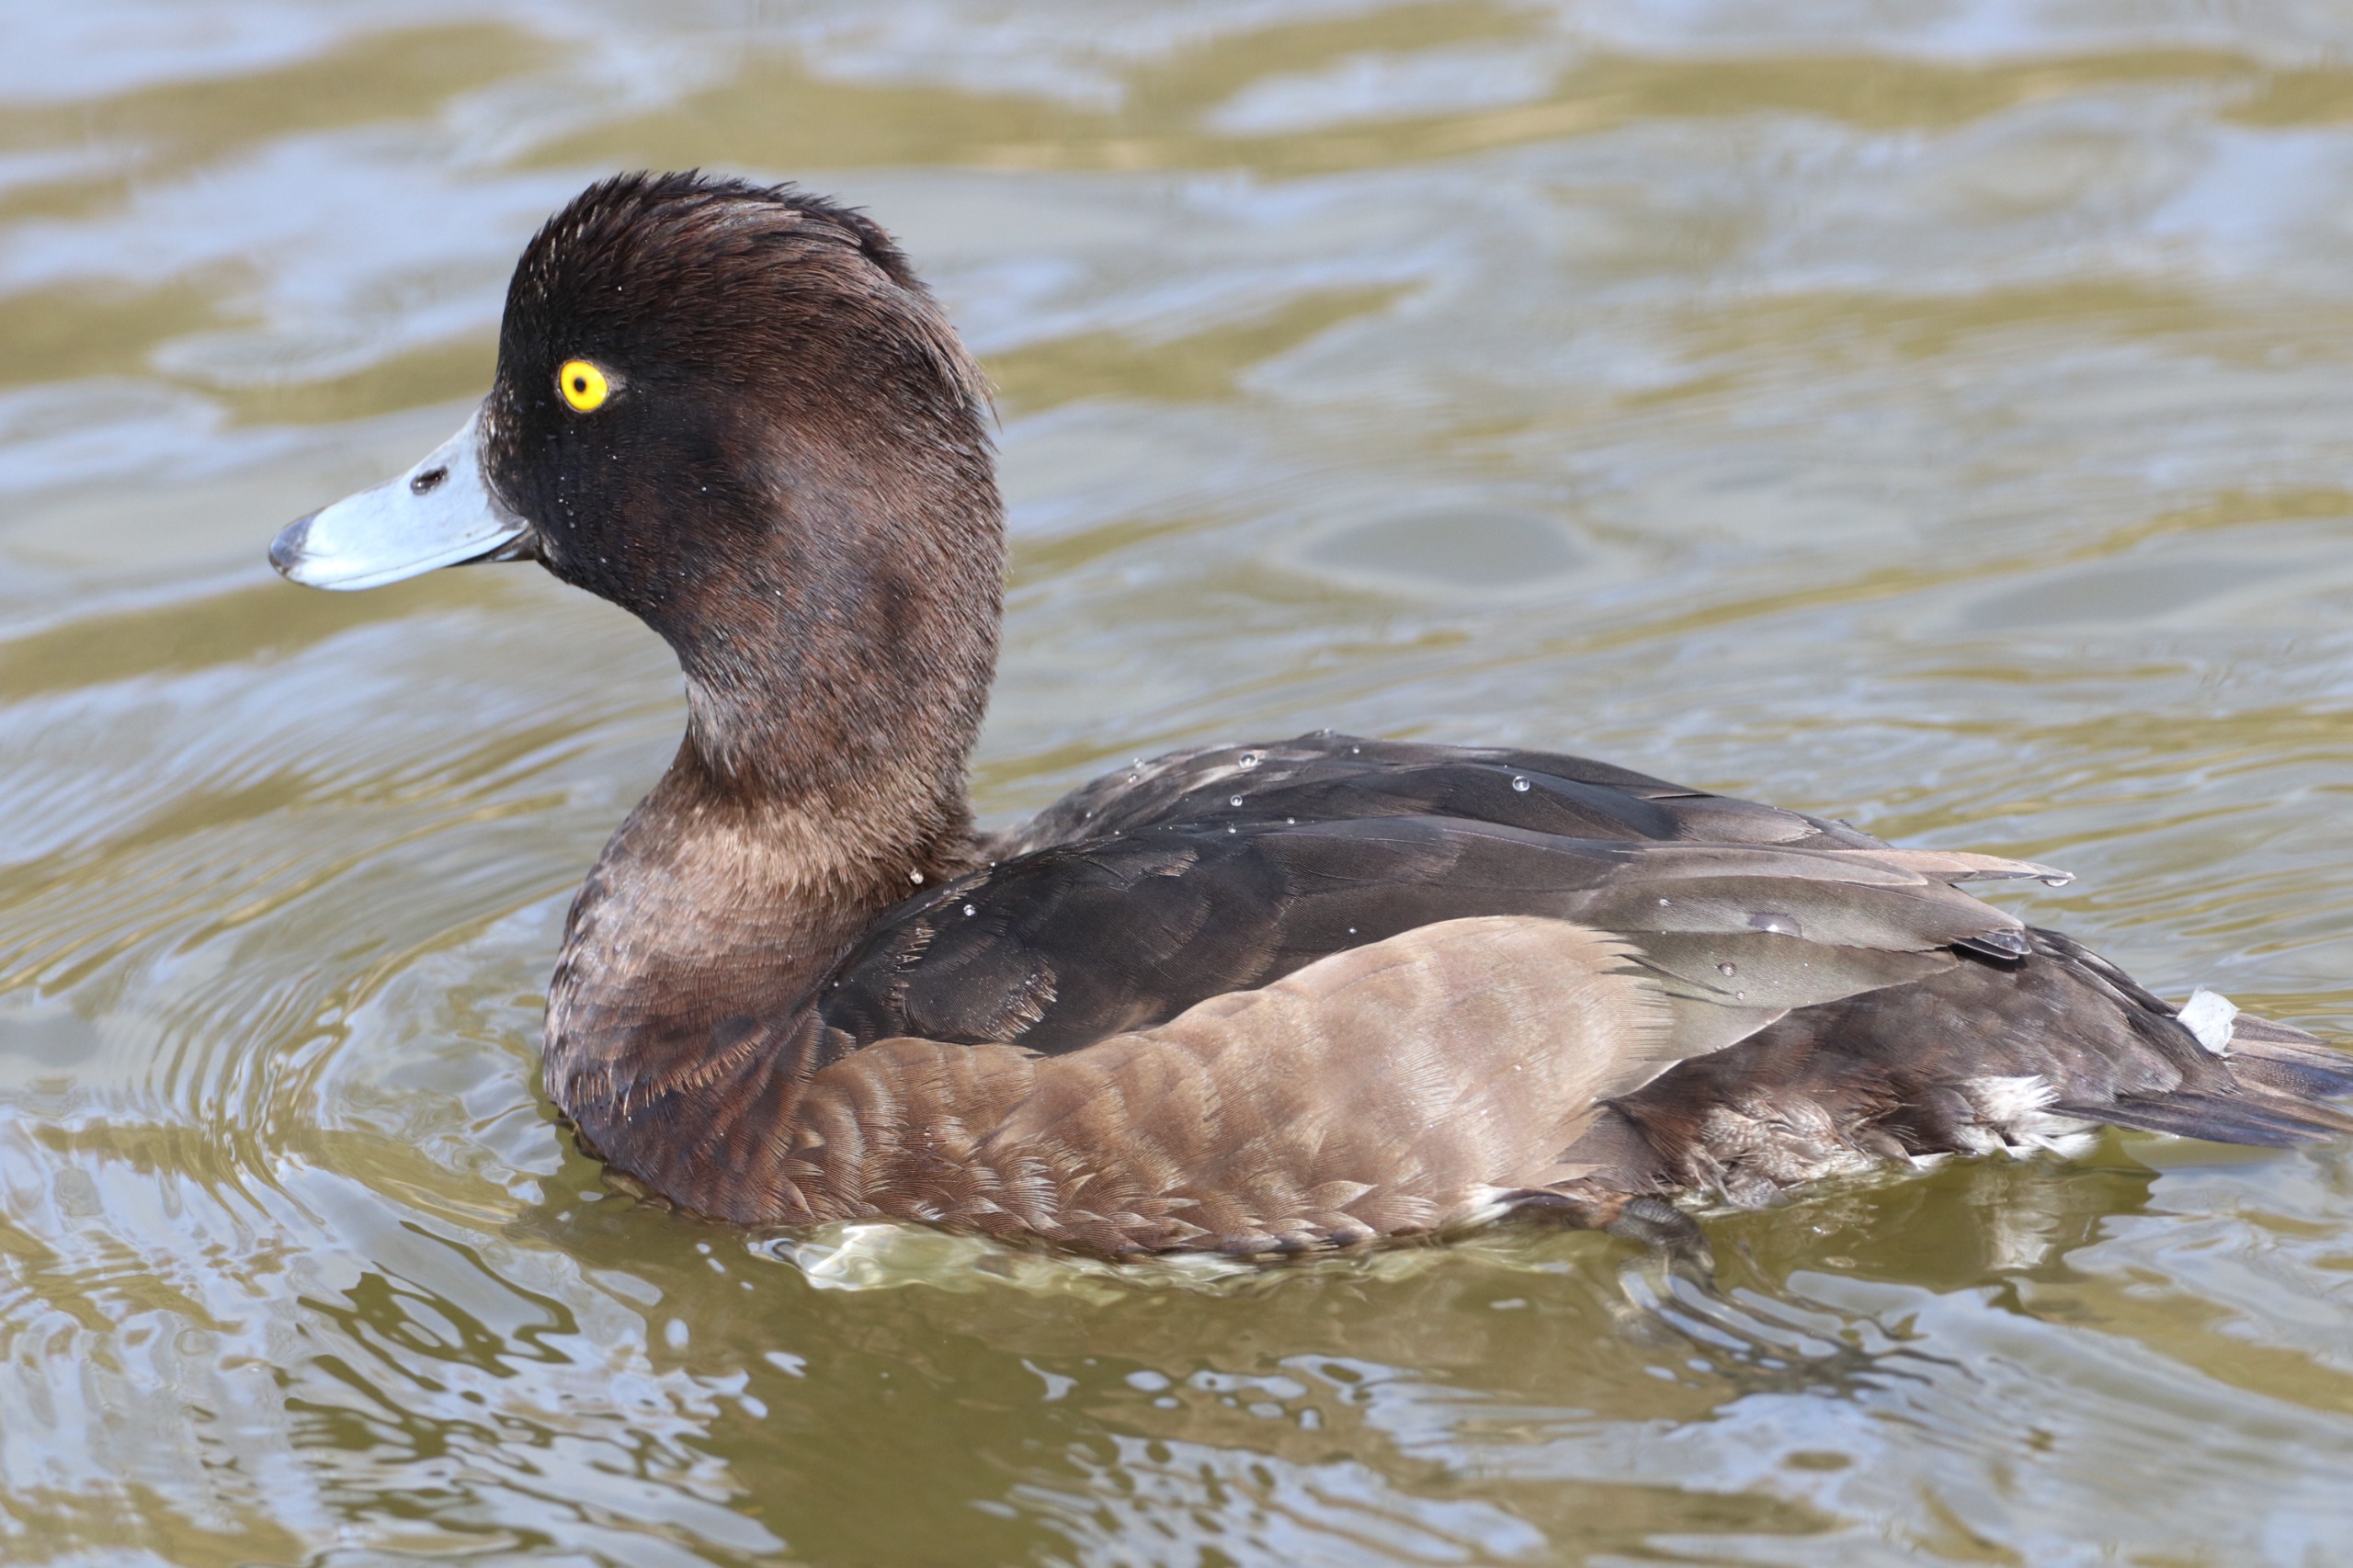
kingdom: Animalia
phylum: Chordata
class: Aves
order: Anseriformes
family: Anatidae
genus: Aythya
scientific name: Aythya fuligula
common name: Troldand
